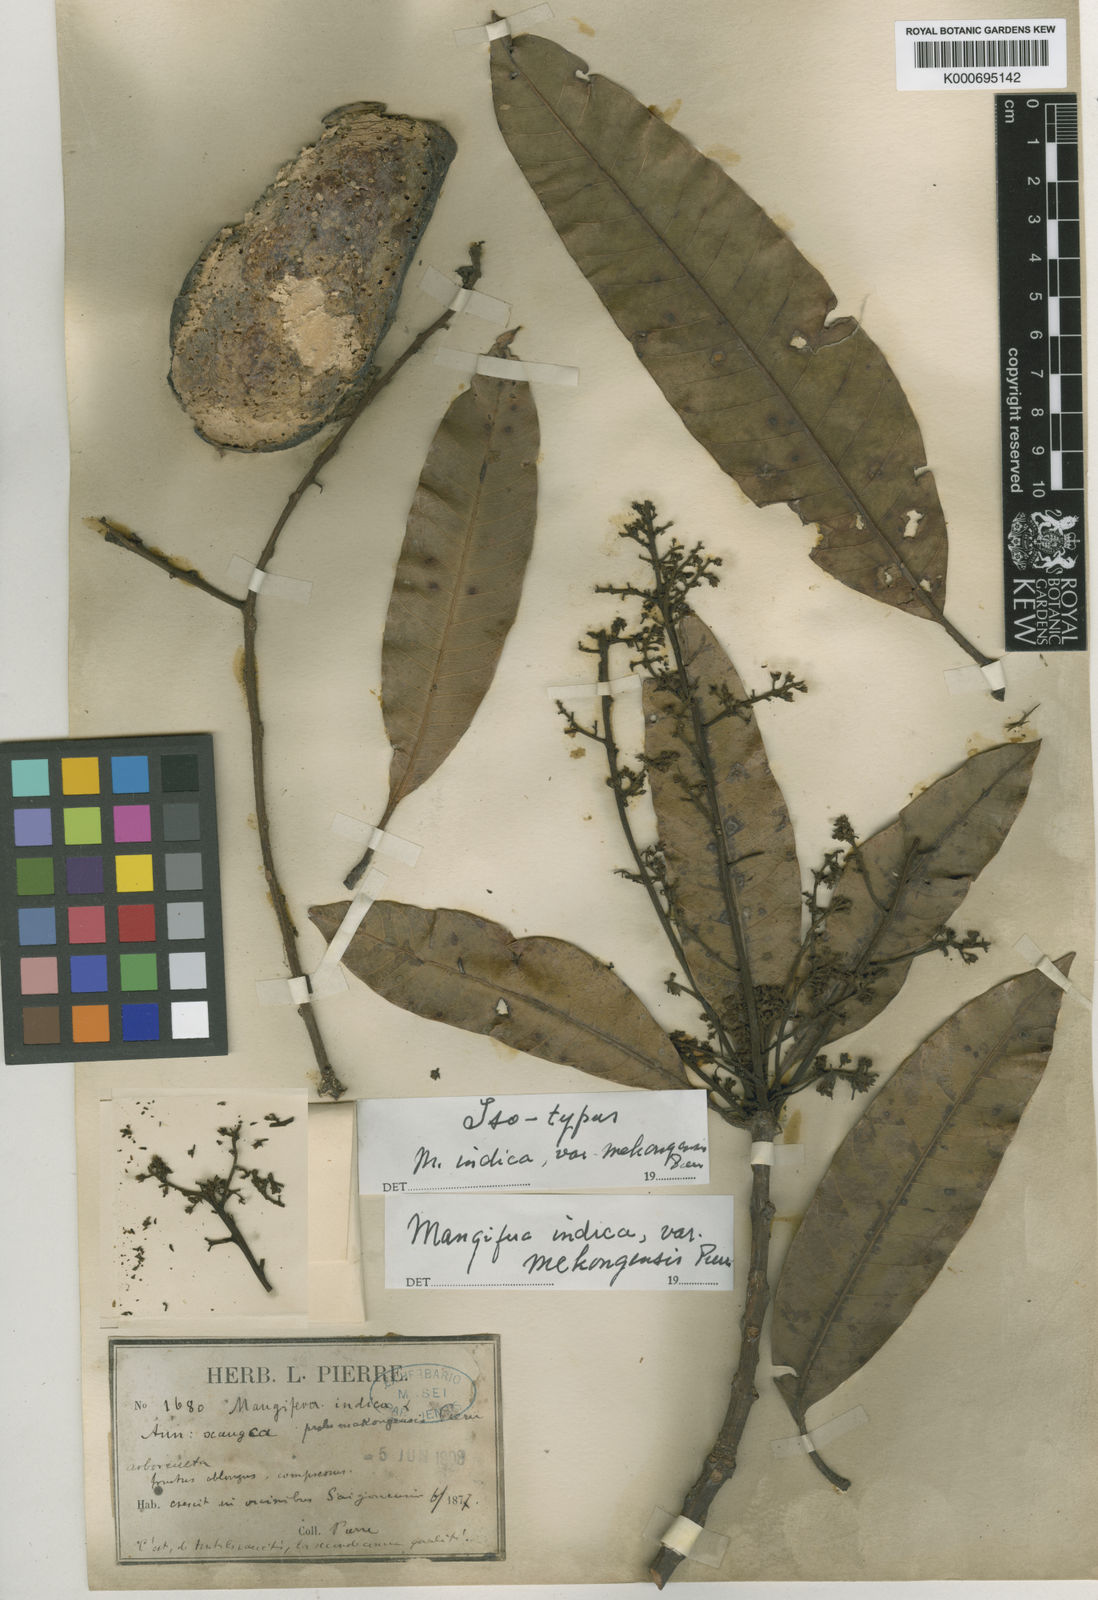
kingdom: Plantae
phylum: Tracheophyta
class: Magnoliopsida
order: Sapindales
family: Anacardiaceae
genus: Mangifera
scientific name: Mangifera indica
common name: Mango
